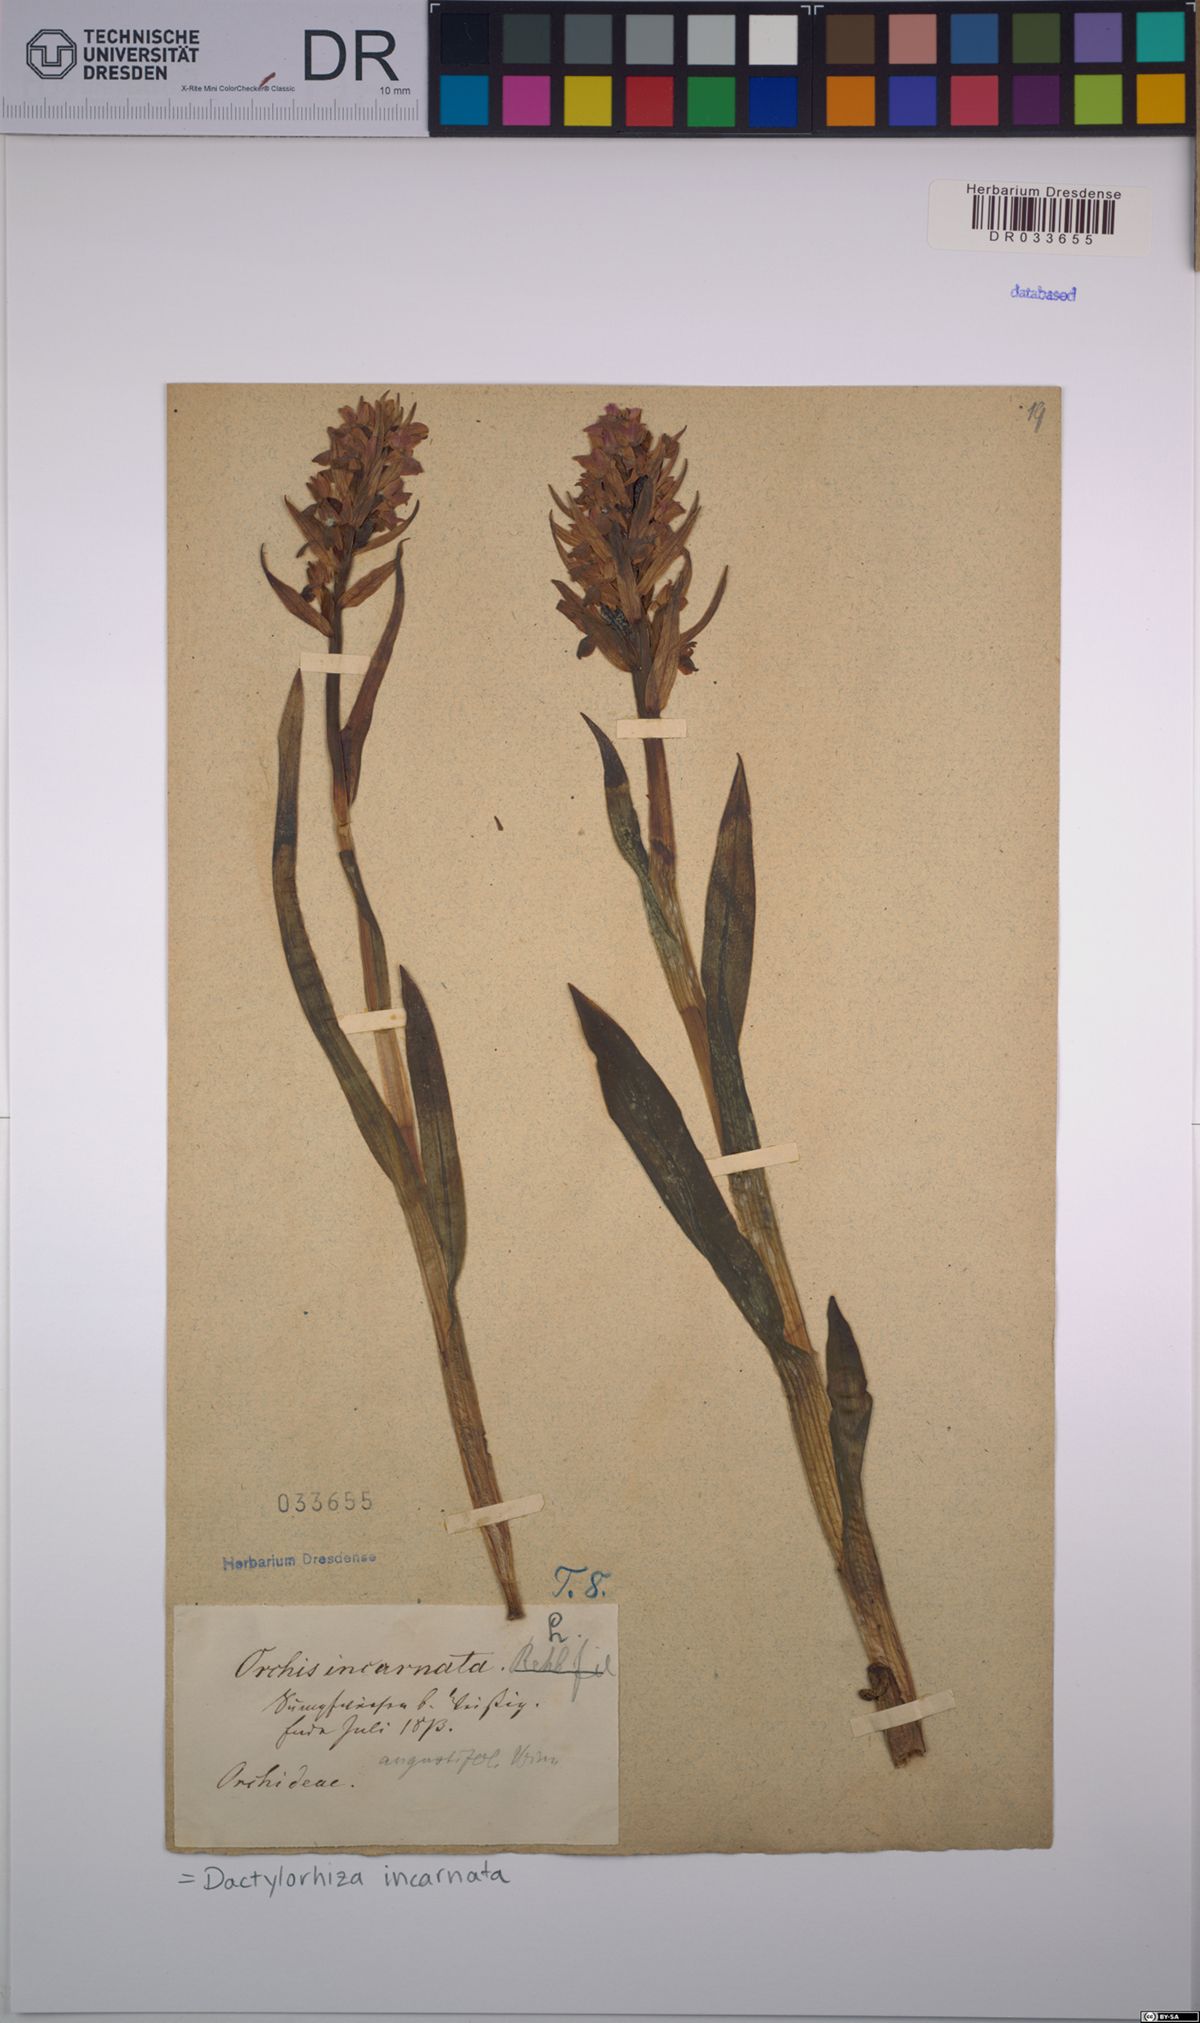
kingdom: Plantae
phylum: Tracheophyta
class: Liliopsida
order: Asparagales
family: Orchidaceae
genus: Dactylorhiza
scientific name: Dactylorhiza incarnata
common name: Early marsh-orchid
